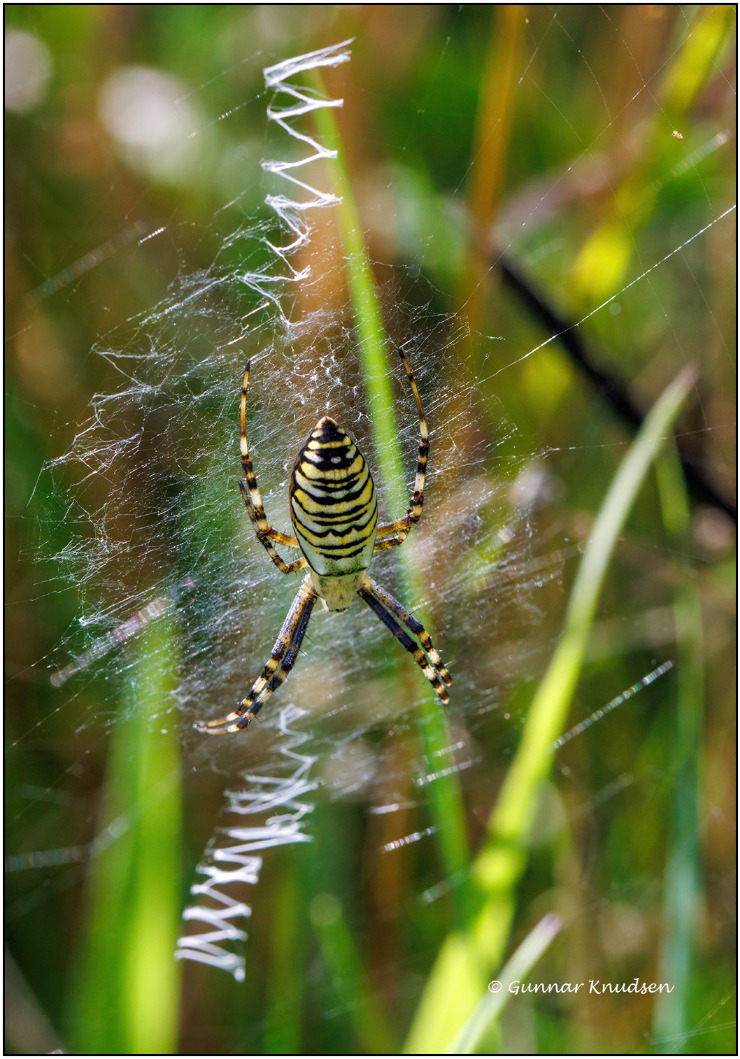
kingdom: Animalia
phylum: Arthropoda
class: Arachnida
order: Araneae
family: Araneidae
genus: Argiope
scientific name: Argiope bruennichi
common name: Hvepseedderkop
